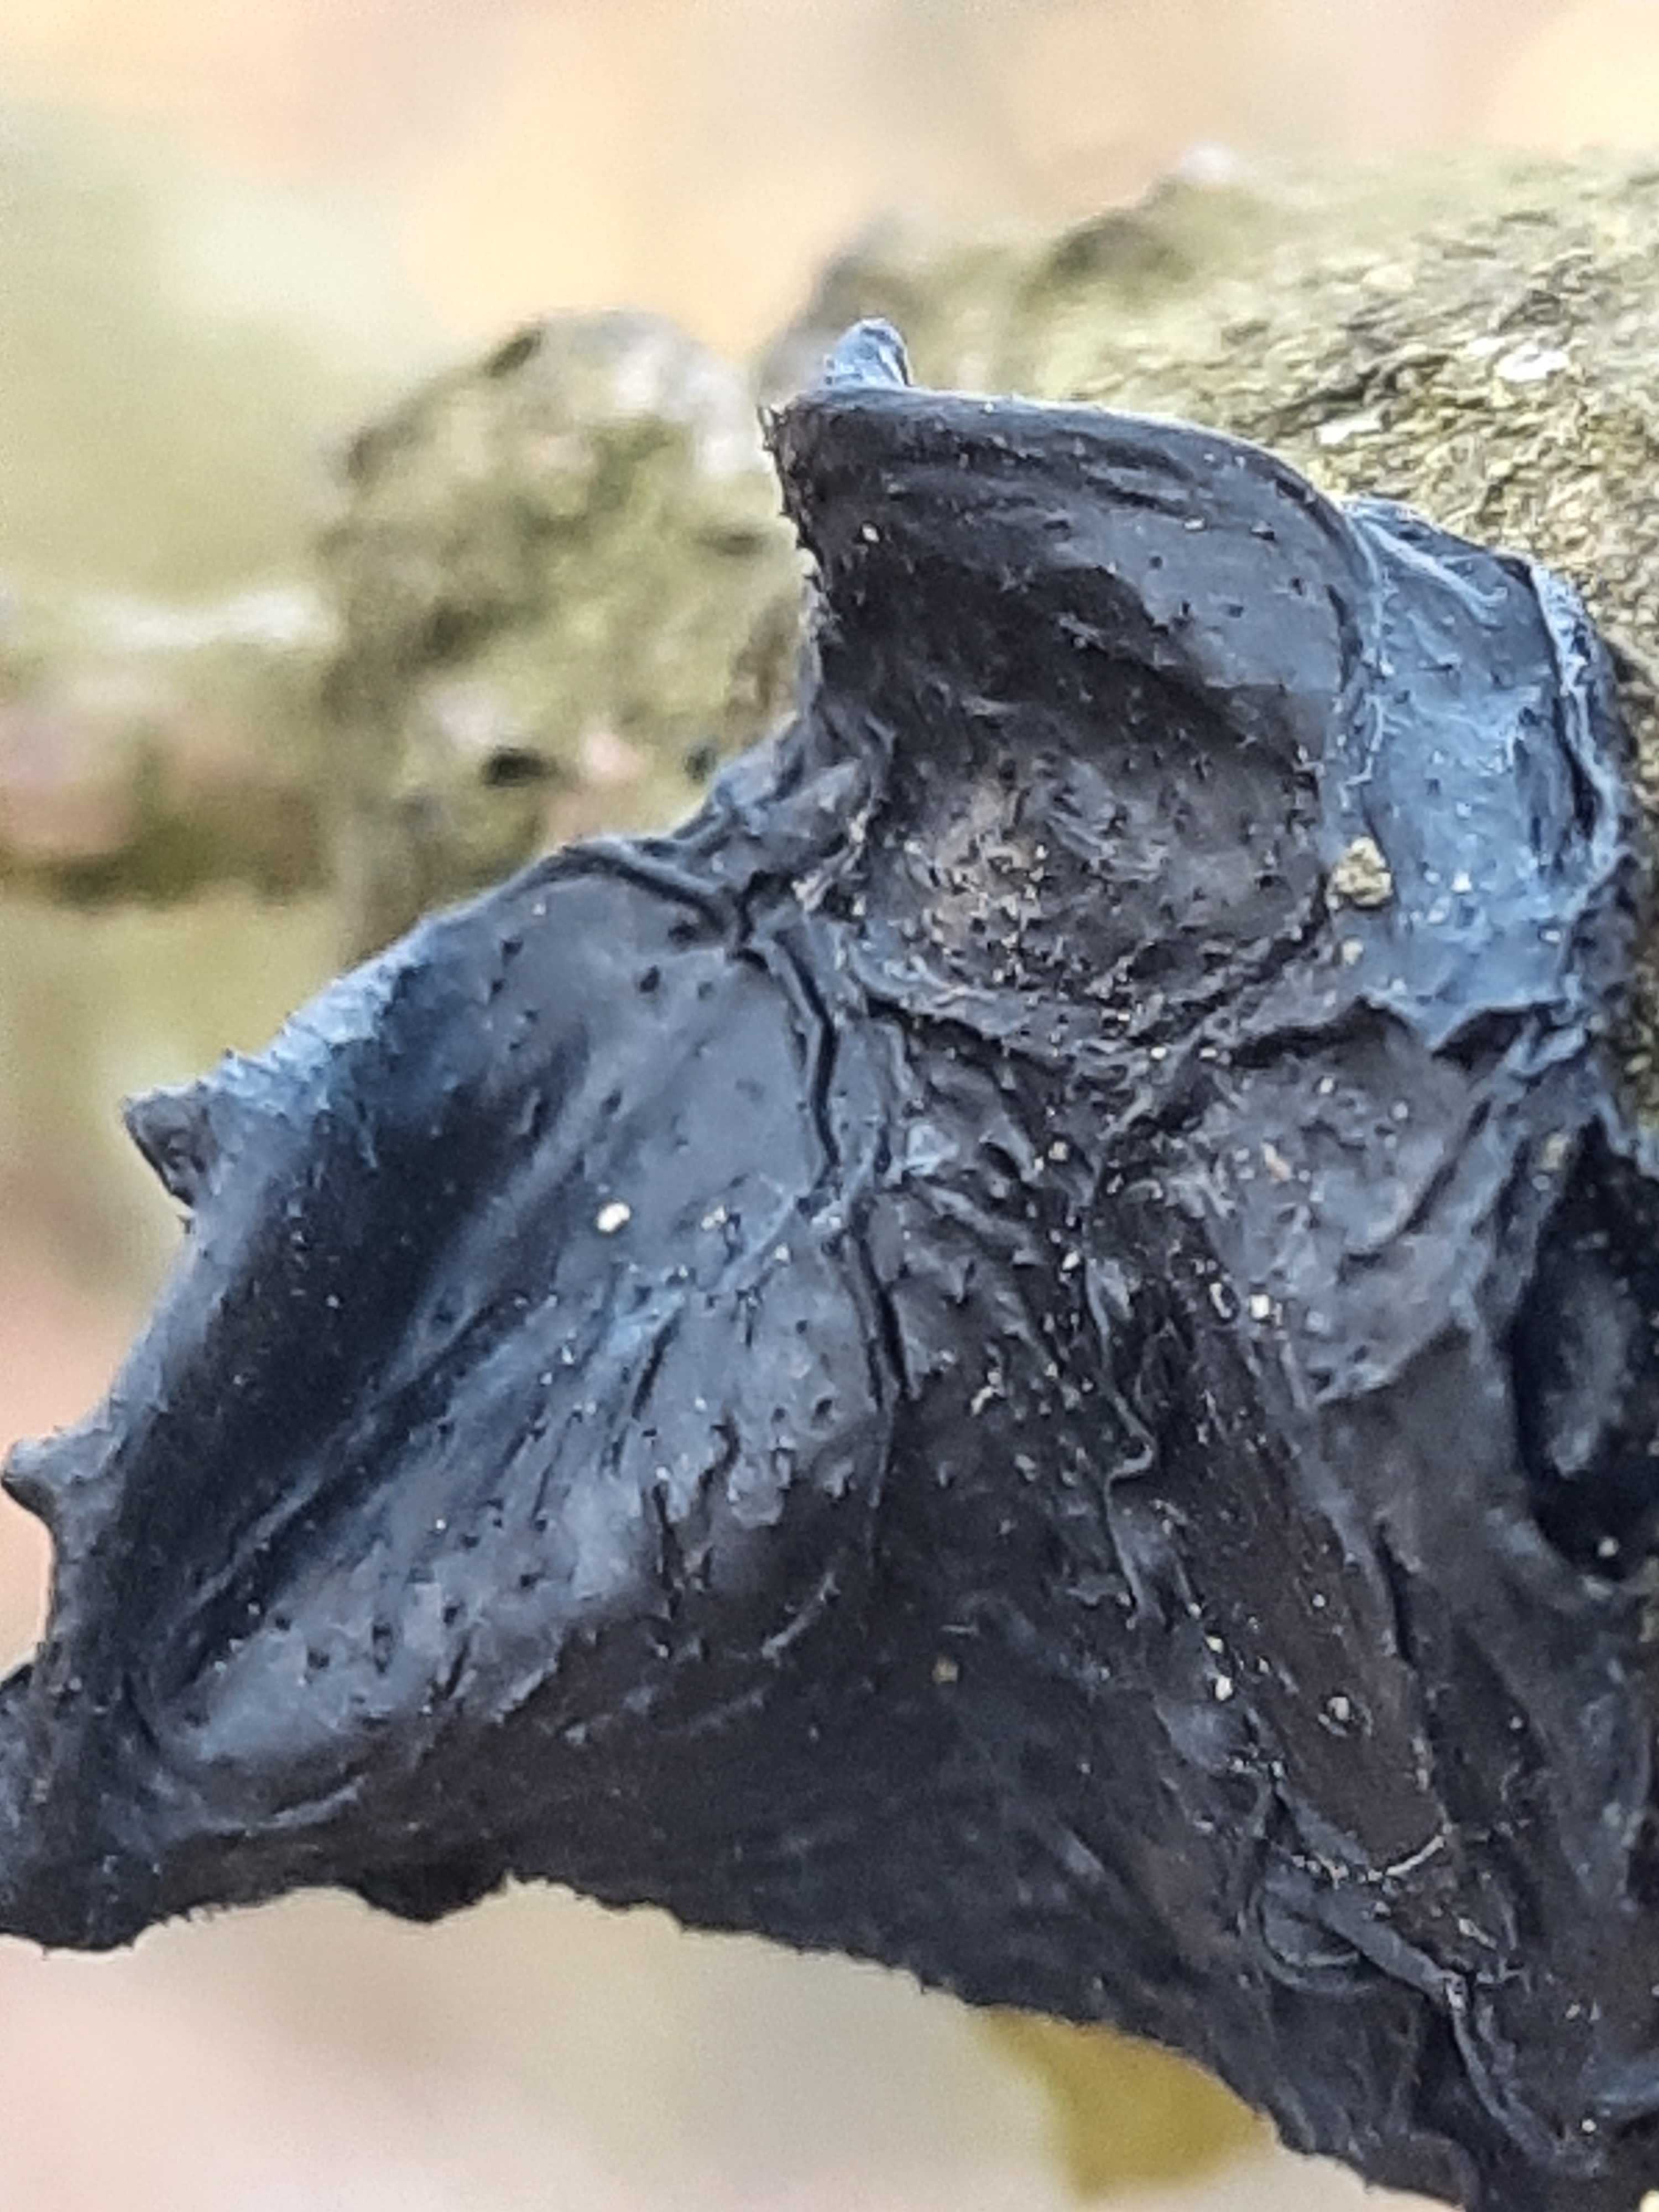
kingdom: Fungi
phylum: Basidiomycota
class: Agaricomycetes
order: Auriculariales
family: Auriculariaceae
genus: Exidia
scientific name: Exidia glandulosa
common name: ege-bævretop
